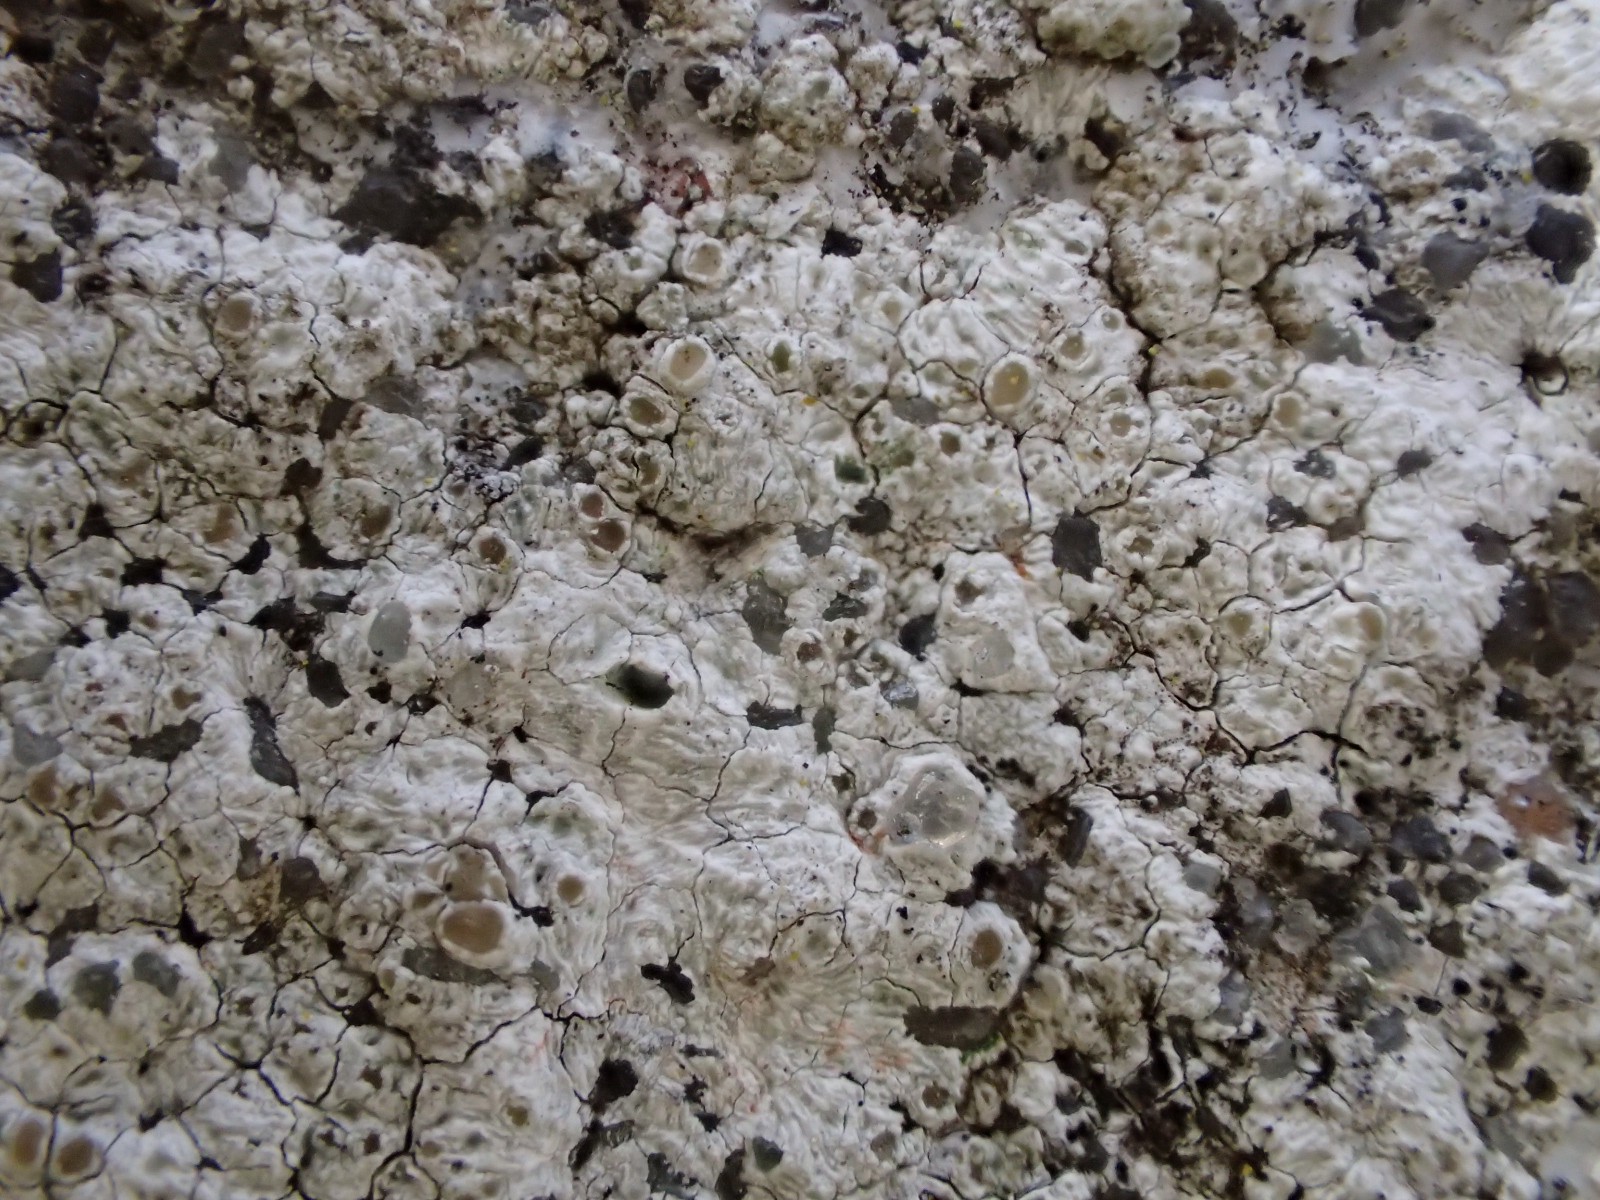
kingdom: Fungi
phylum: Ascomycota
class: Lecanoromycetes
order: Lecanorales
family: Lecanoraceae
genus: Polyozosia
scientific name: Polyozosia albescens
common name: cement-kantskivelav
